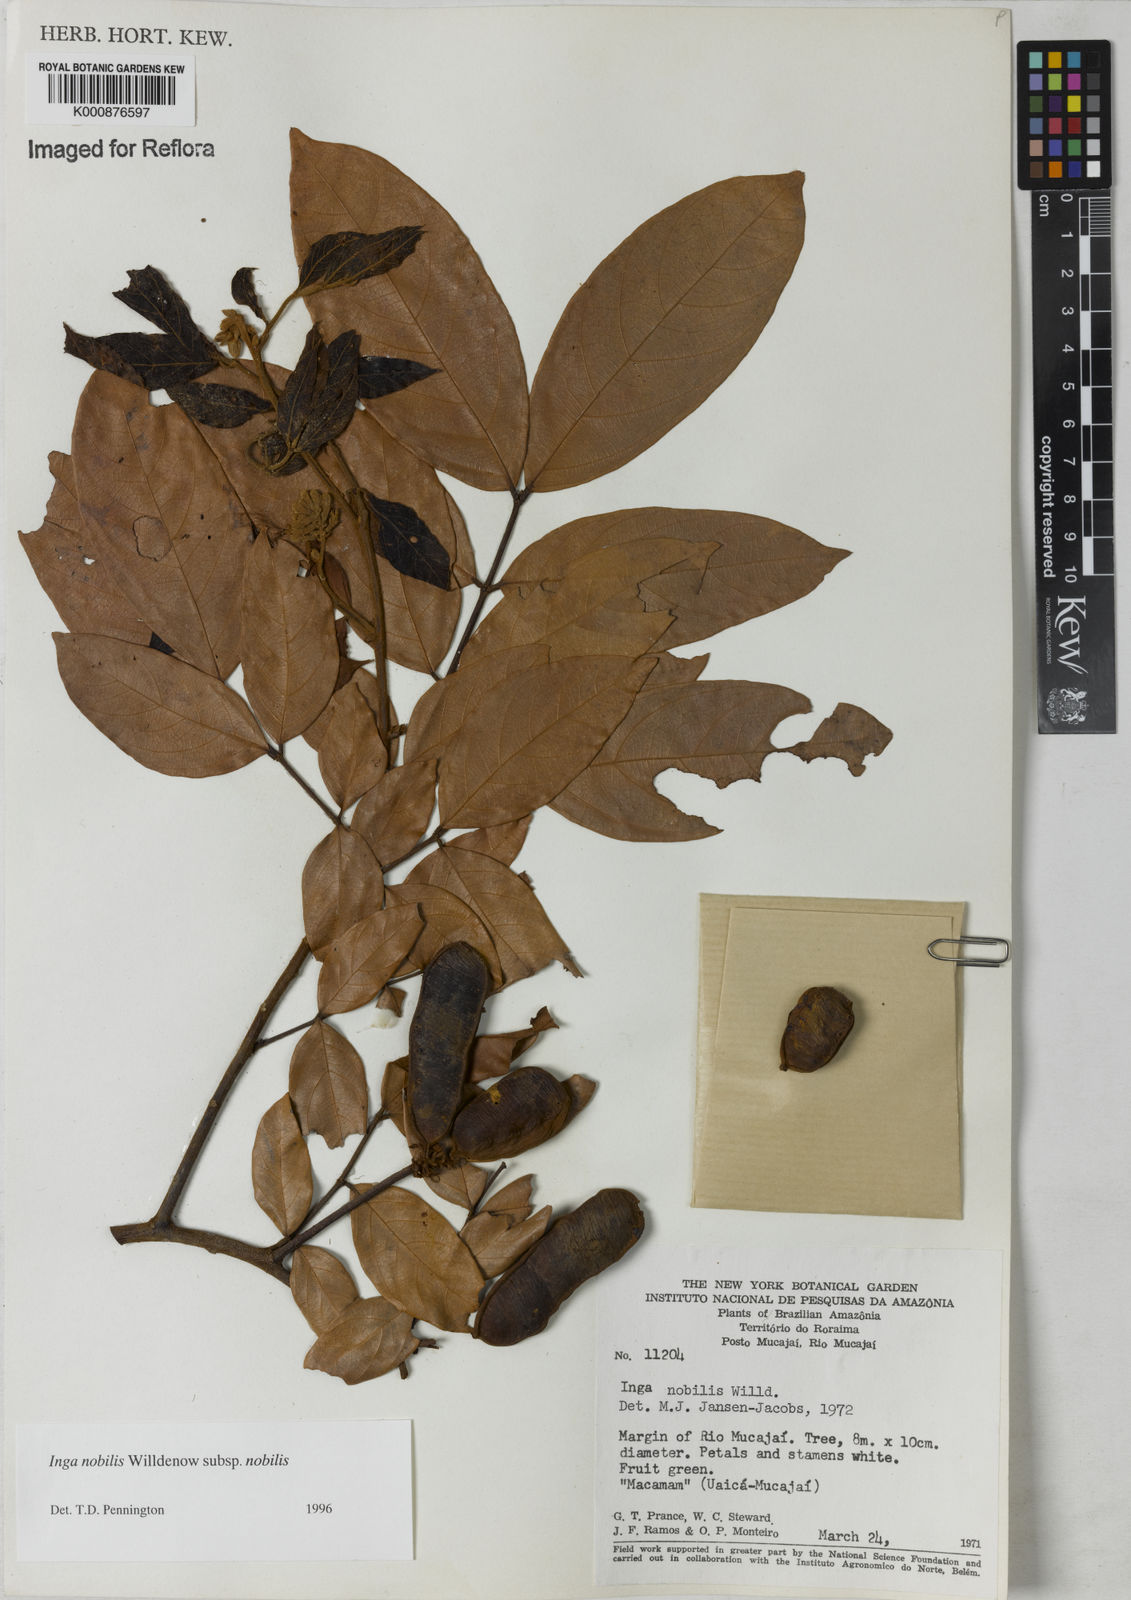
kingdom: Plantae
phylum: Tracheophyta
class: Magnoliopsida
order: Fabales
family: Fabaceae
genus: Inga
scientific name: Inga nobilis
